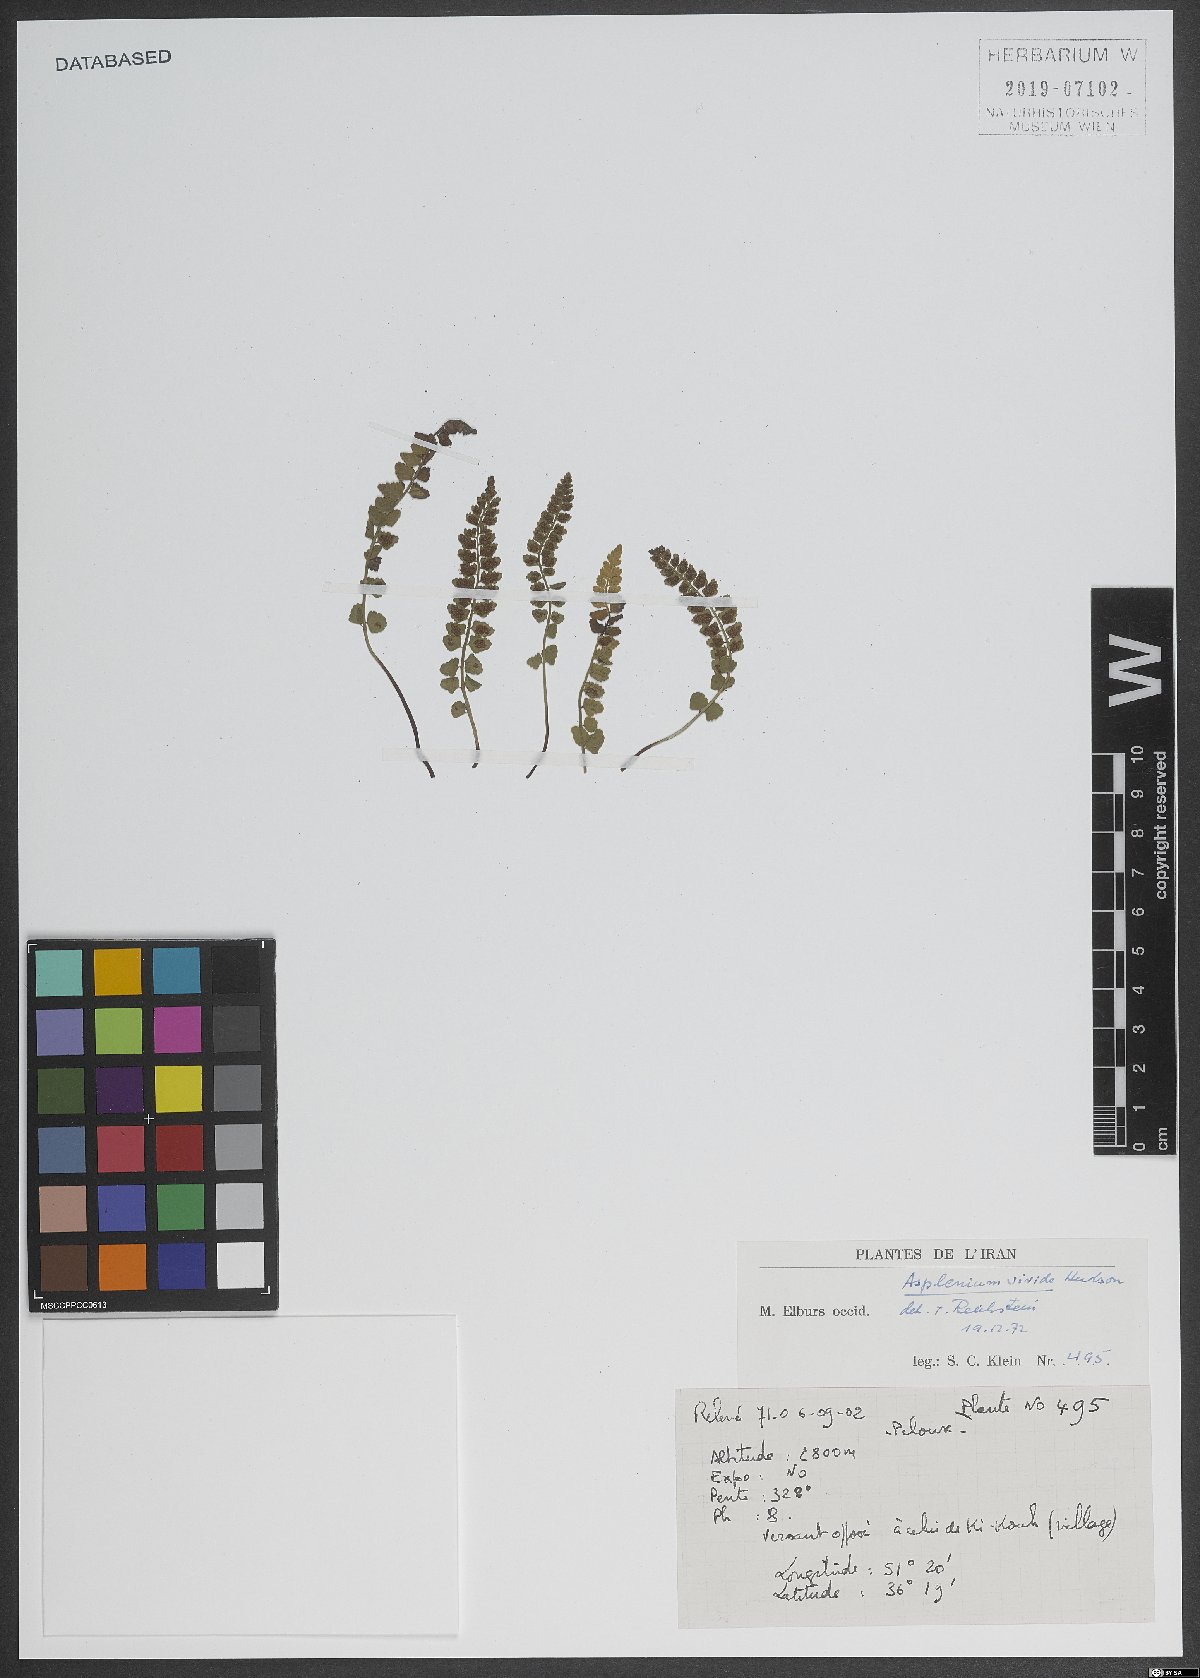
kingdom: Plantae
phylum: Tracheophyta
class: Polypodiopsida
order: Polypodiales
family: Aspleniaceae
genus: Asplenium
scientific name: Asplenium viride
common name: Green spleenwort
